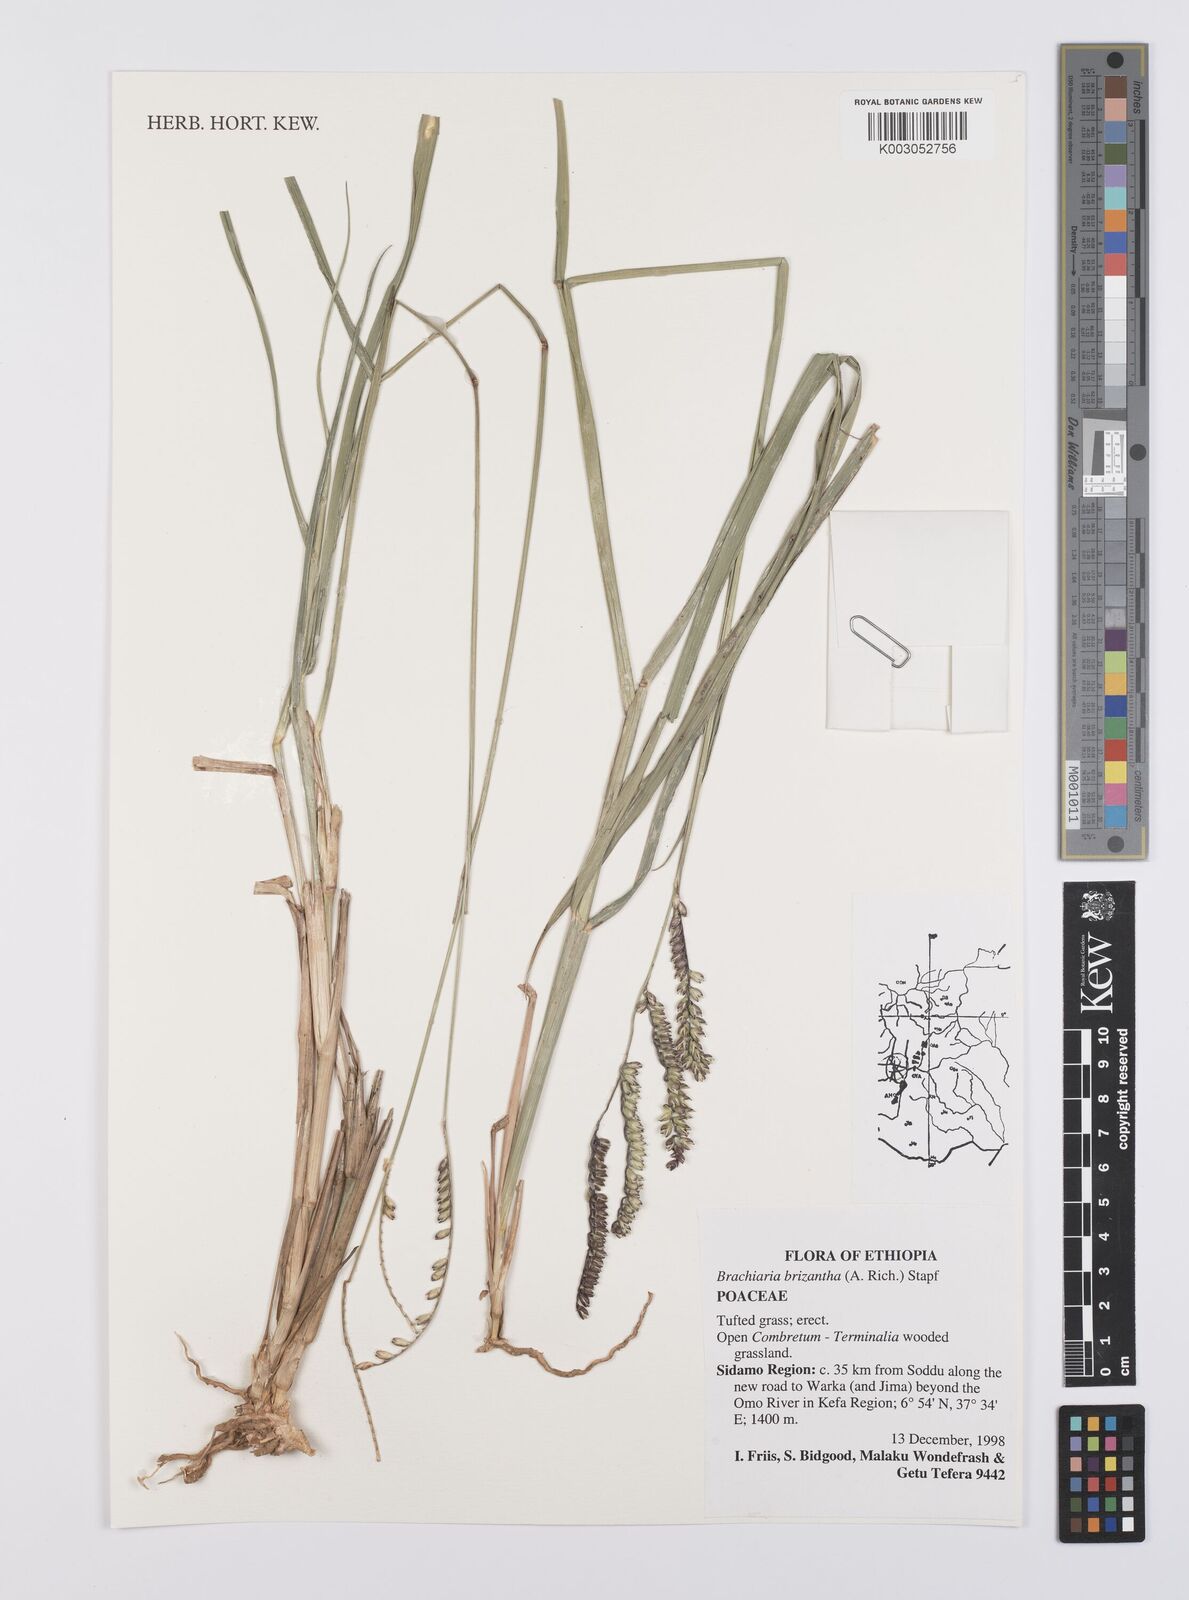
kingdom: Plantae
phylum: Tracheophyta
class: Liliopsida
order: Poales
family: Poaceae
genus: Urochloa
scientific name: Urochloa brizantha
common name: Palisade signalgrass
